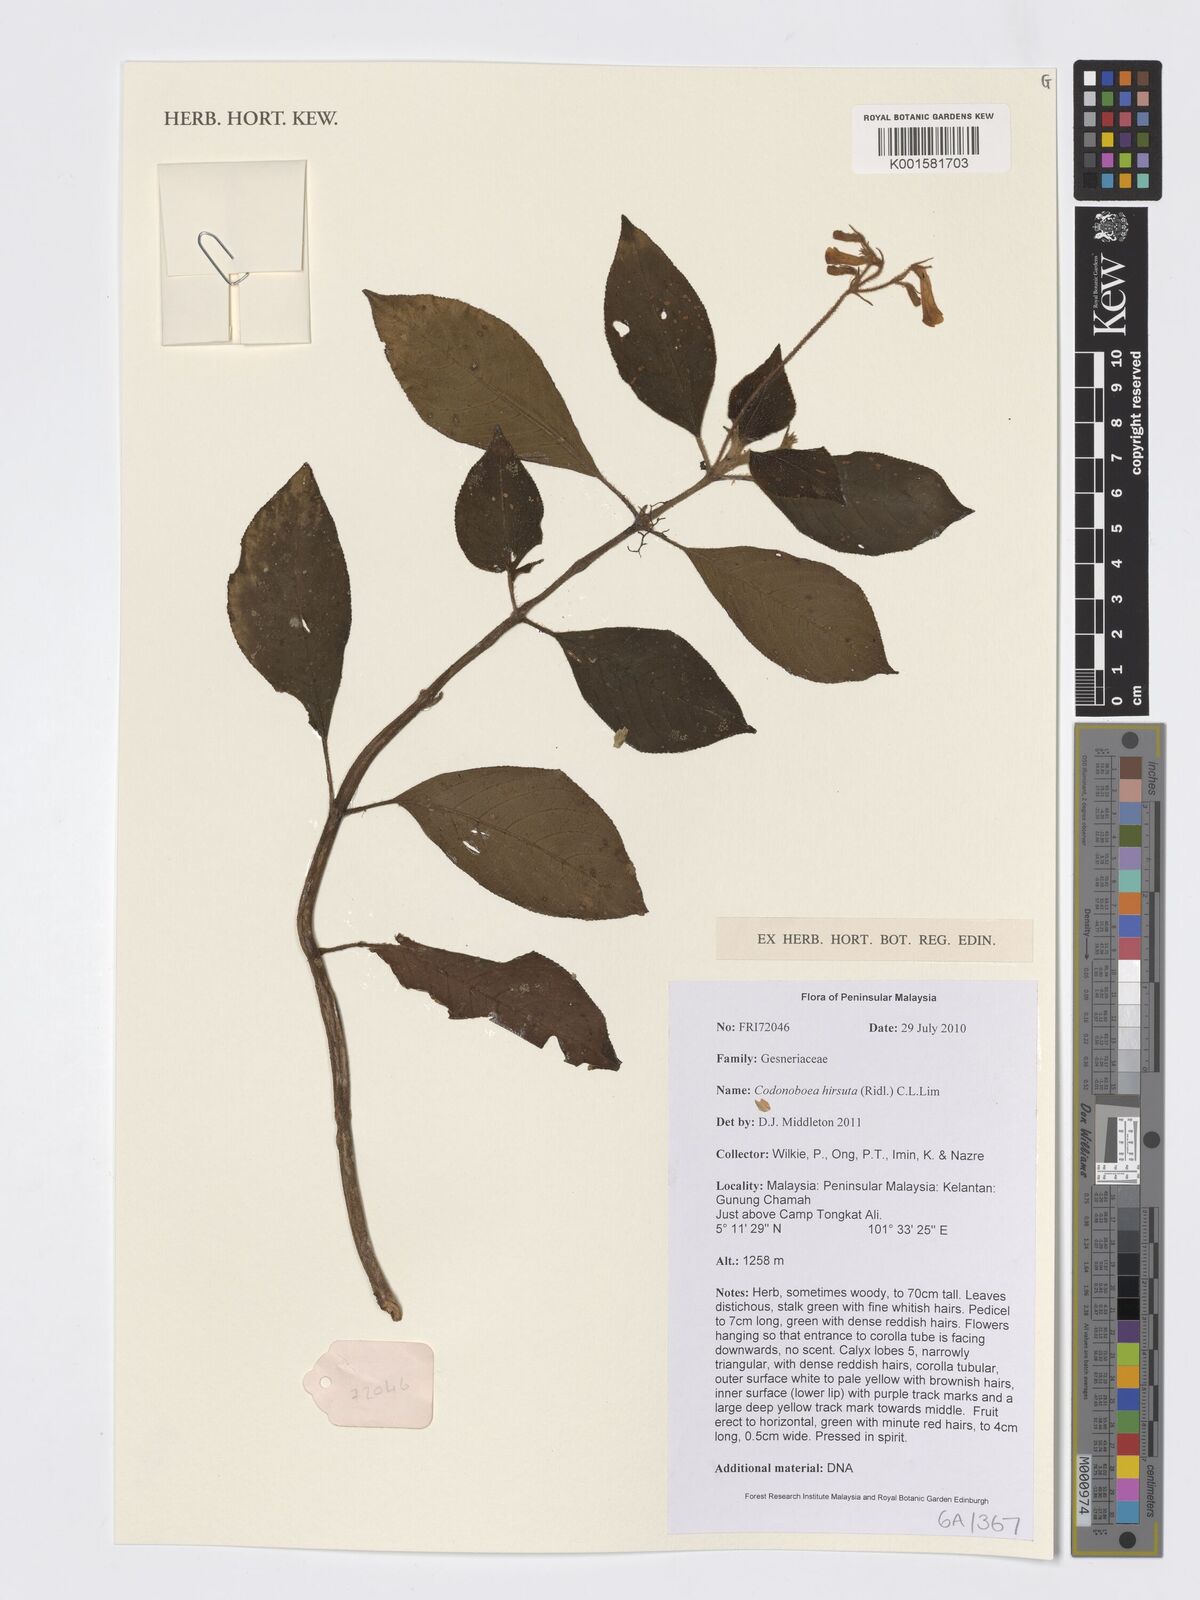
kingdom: Plantae
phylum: Tracheophyta
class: Magnoliopsida
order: Lamiales
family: Gesneriaceae
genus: Codonoboea
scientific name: Codonoboea hirsuta
